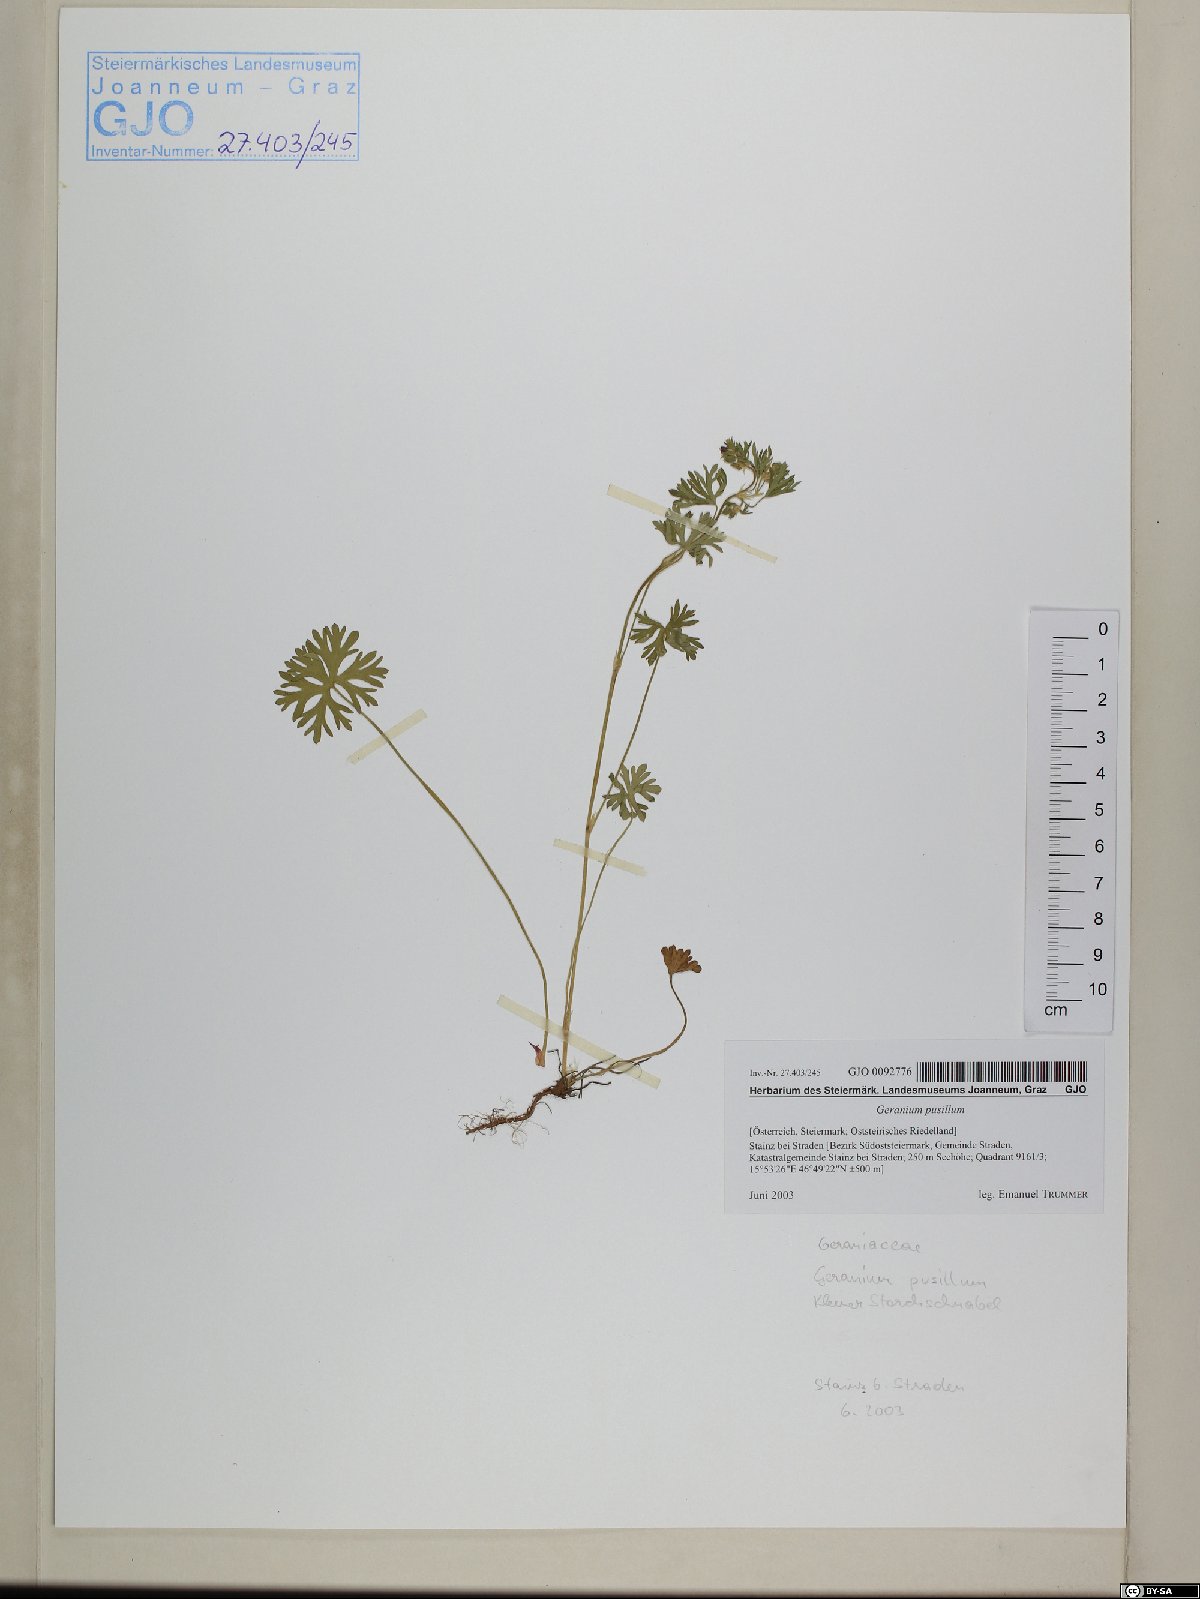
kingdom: Plantae
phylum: Tracheophyta
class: Magnoliopsida
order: Geraniales
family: Geraniaceae
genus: Geranium
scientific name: Geranium pusillum
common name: Small geranium
